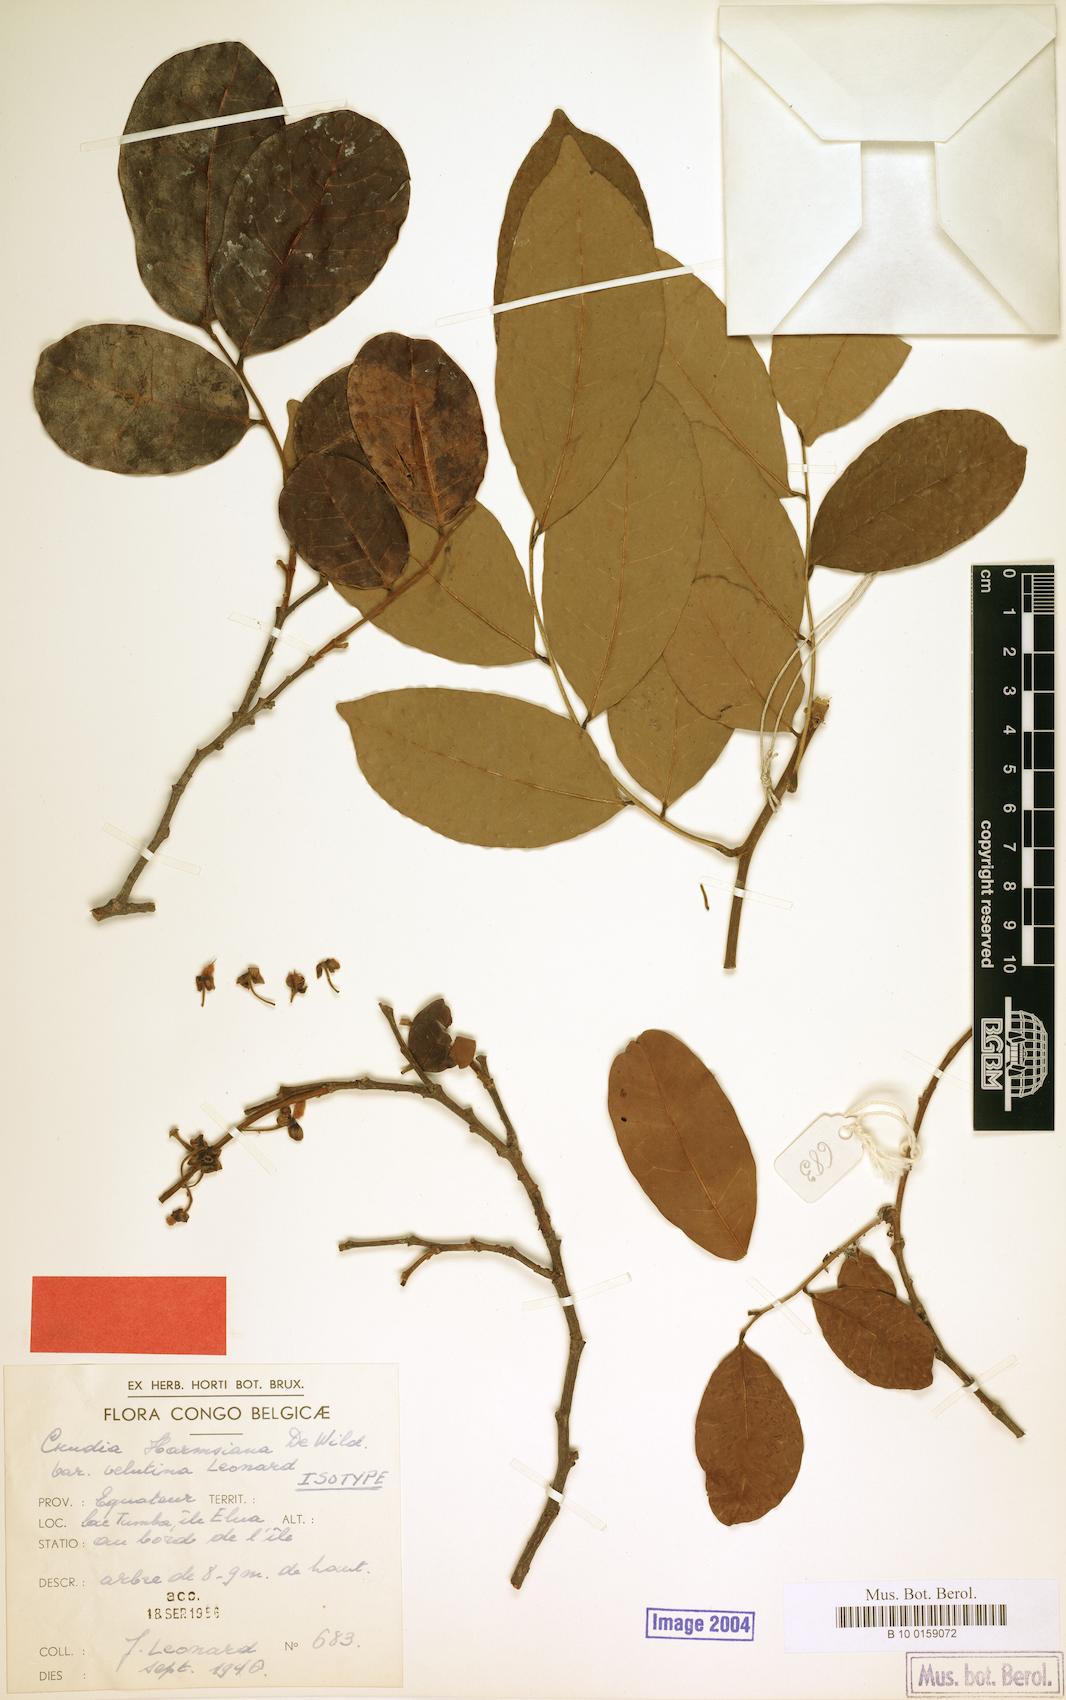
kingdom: Plantae
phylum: Tracheophyta
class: Magnoliopsida
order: Fabales
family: Fabaceae
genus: Crudia
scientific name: Crudia harmsiana
